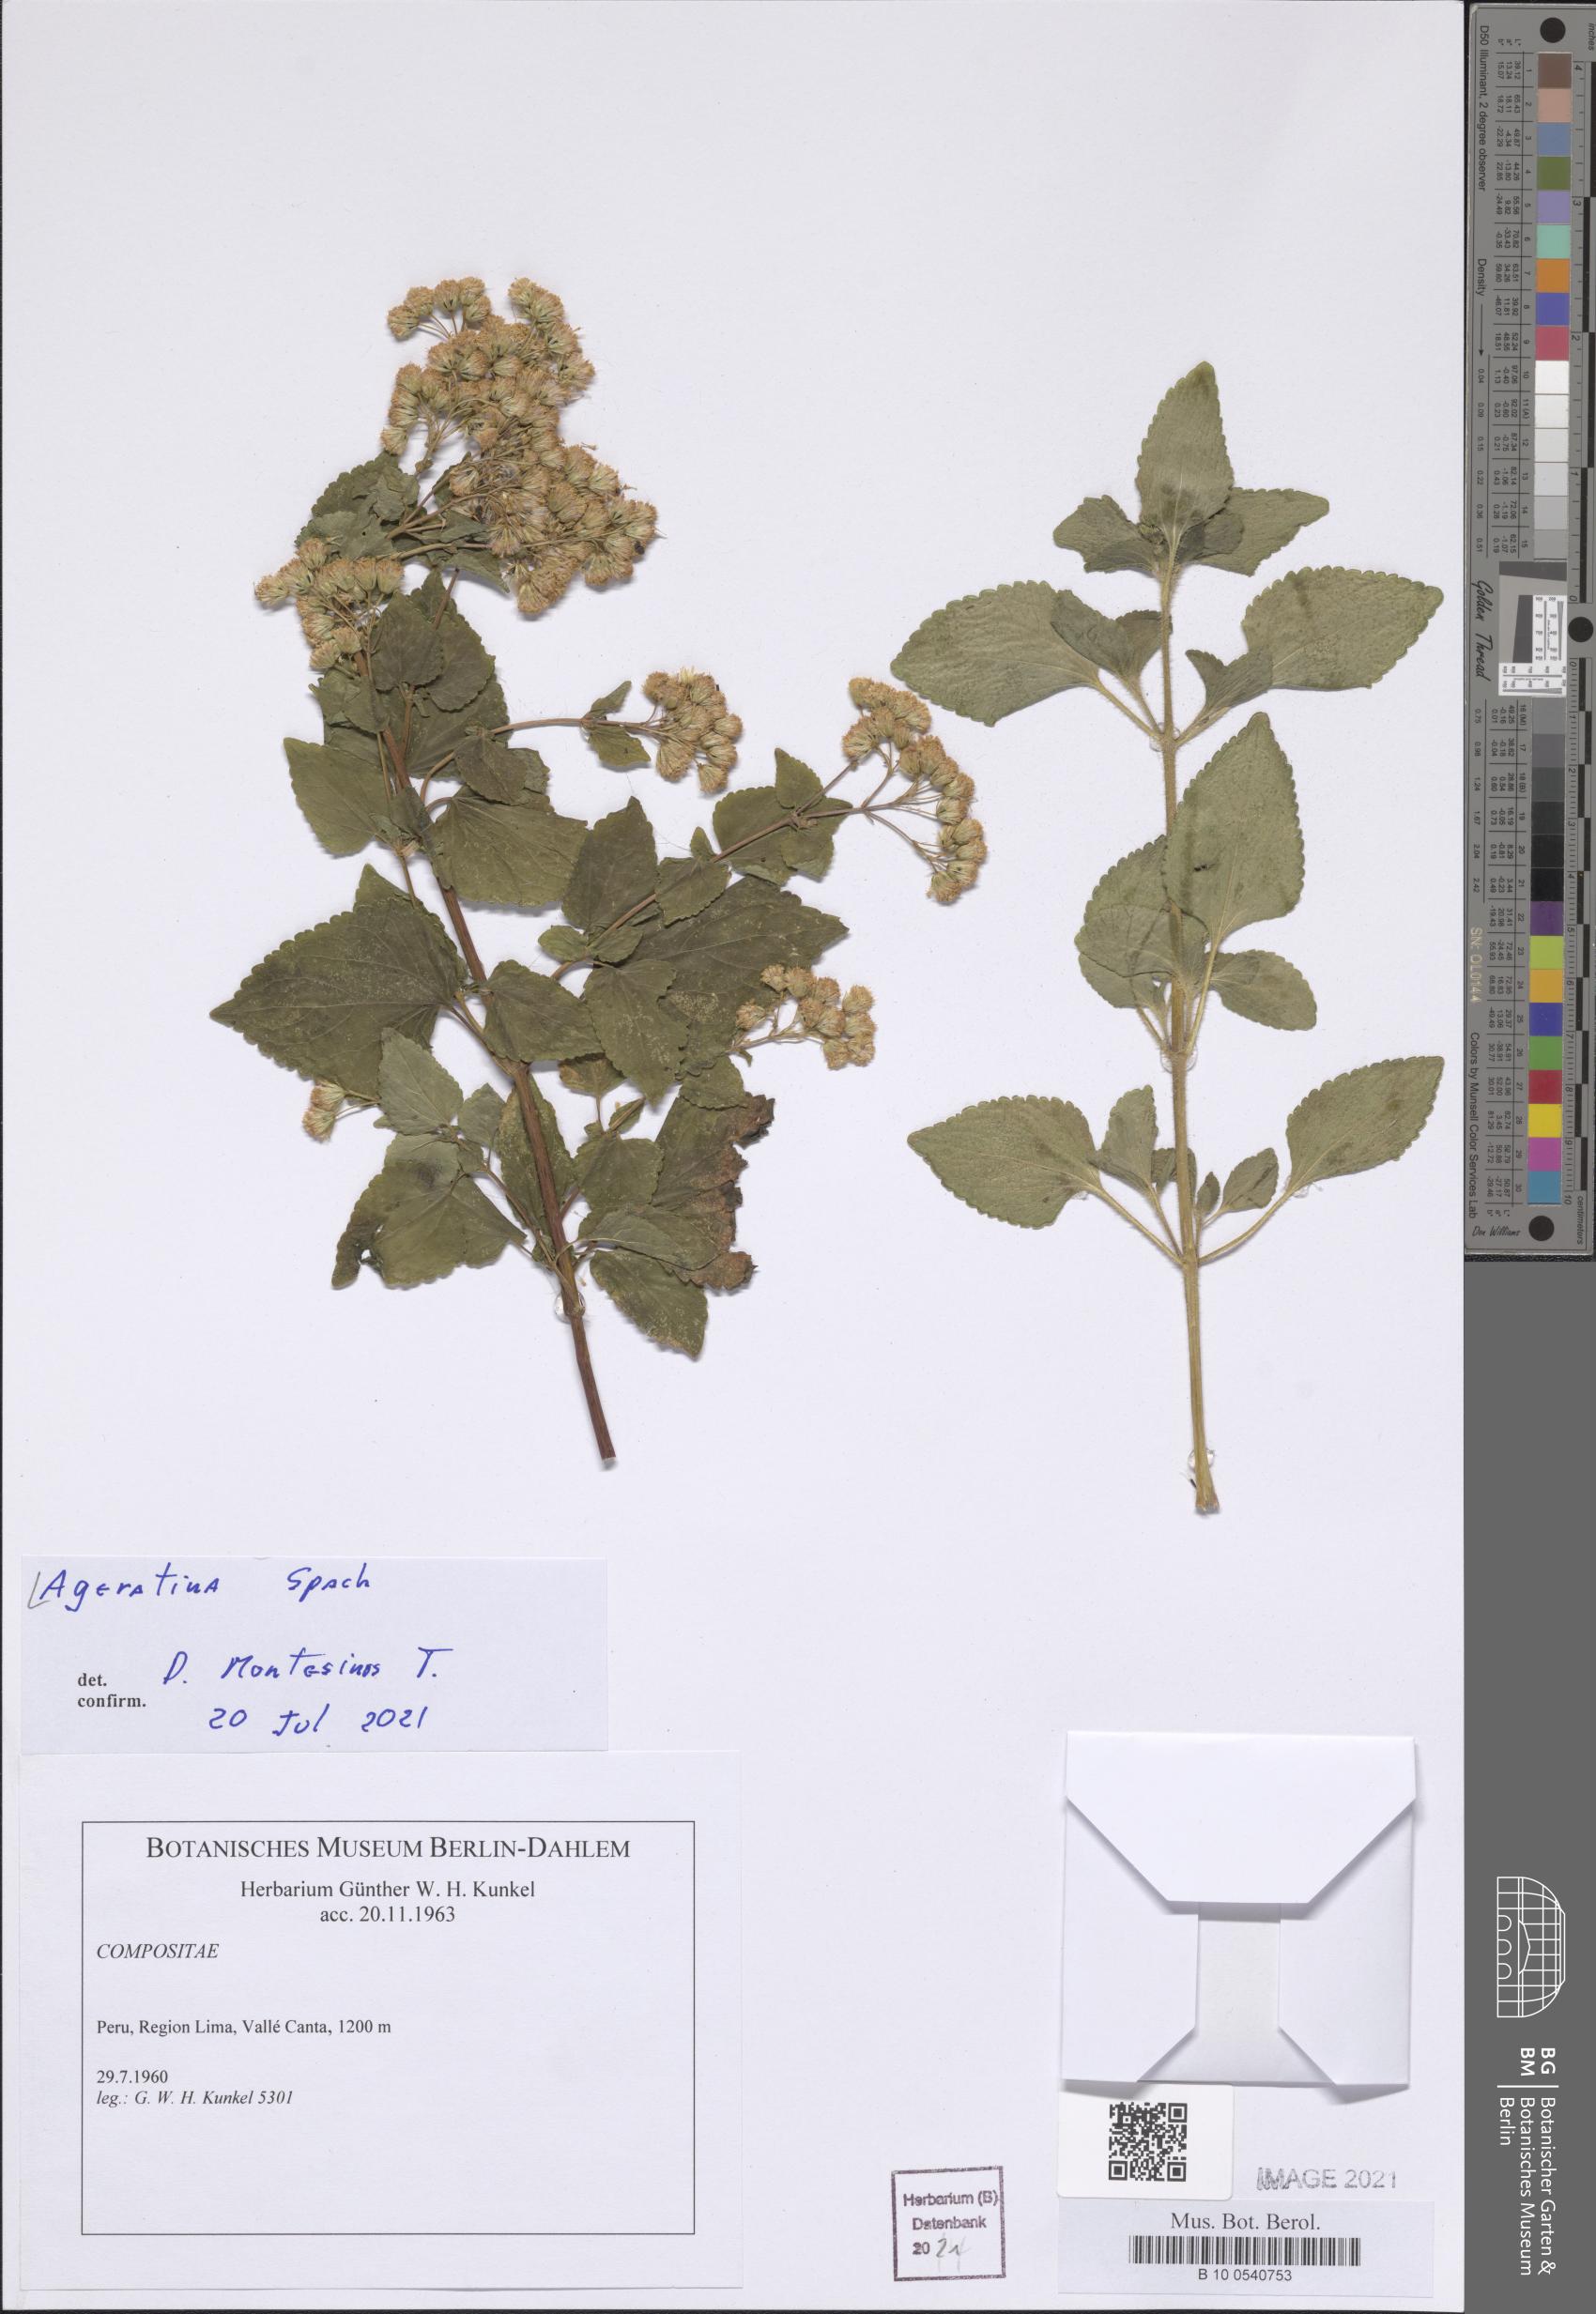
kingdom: Plantae
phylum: Tracheophyta
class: Magnoliopsida
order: Asterales
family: Asteraceae
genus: Ageratina
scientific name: Ageratina
